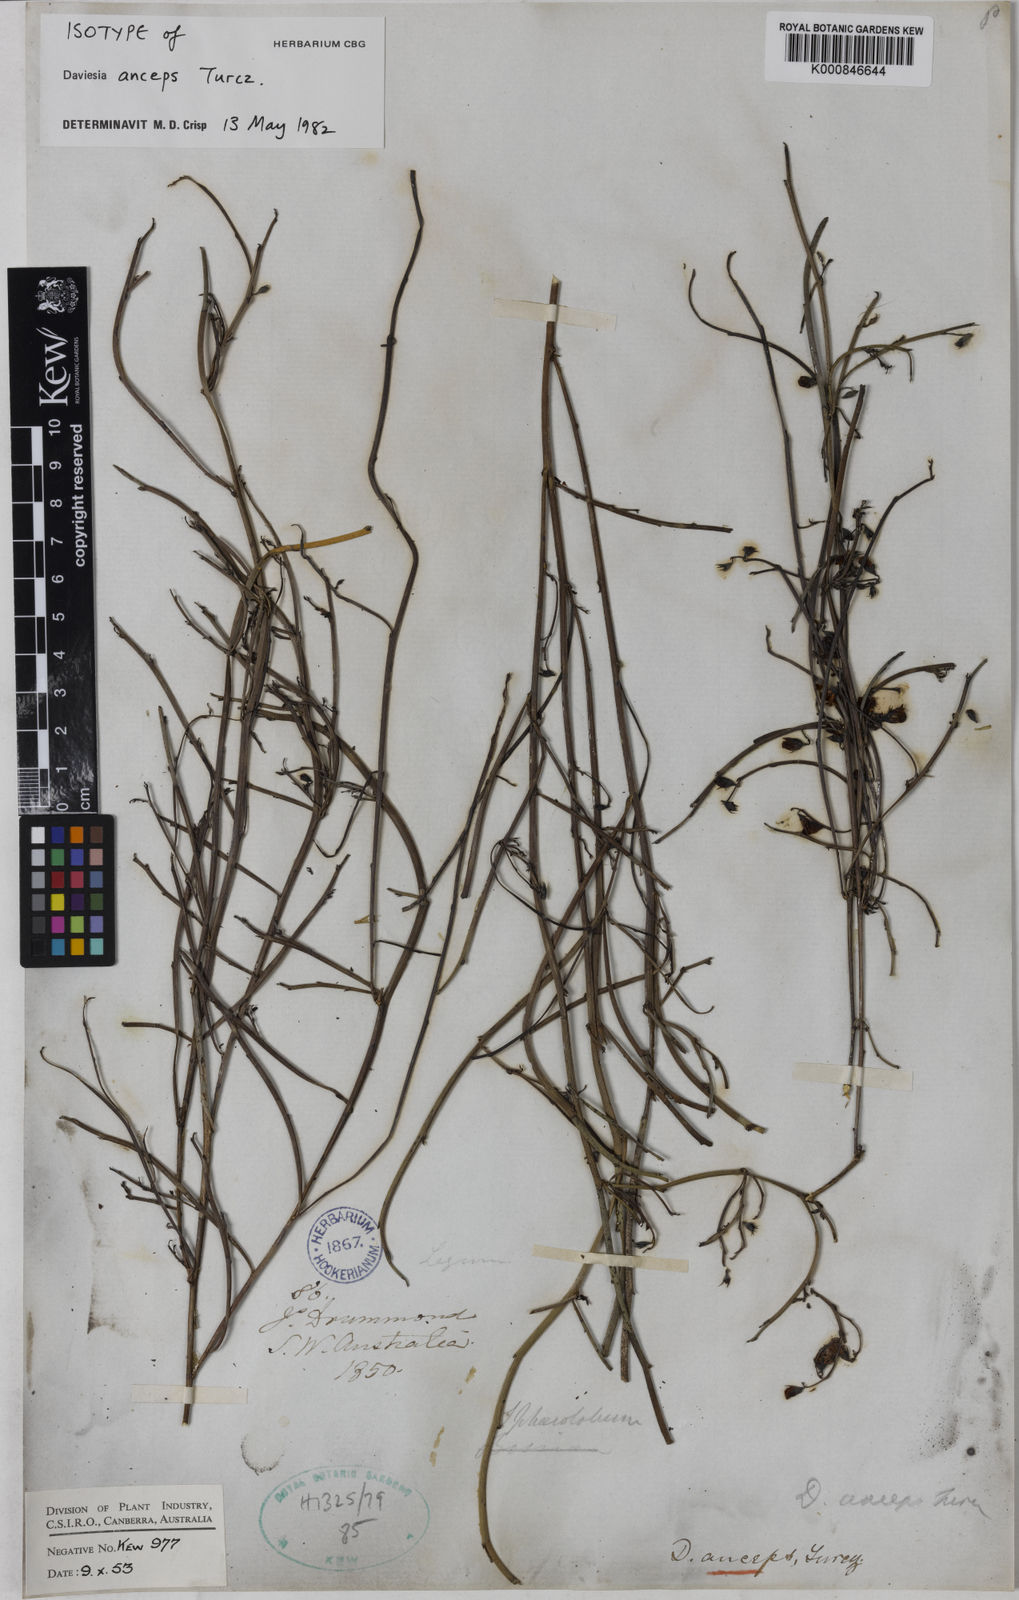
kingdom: Plantae
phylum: Tracheophyta
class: Magnoliopsida
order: Fabales
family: Fabaceae
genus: Daviesia
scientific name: Daviesia anceps
